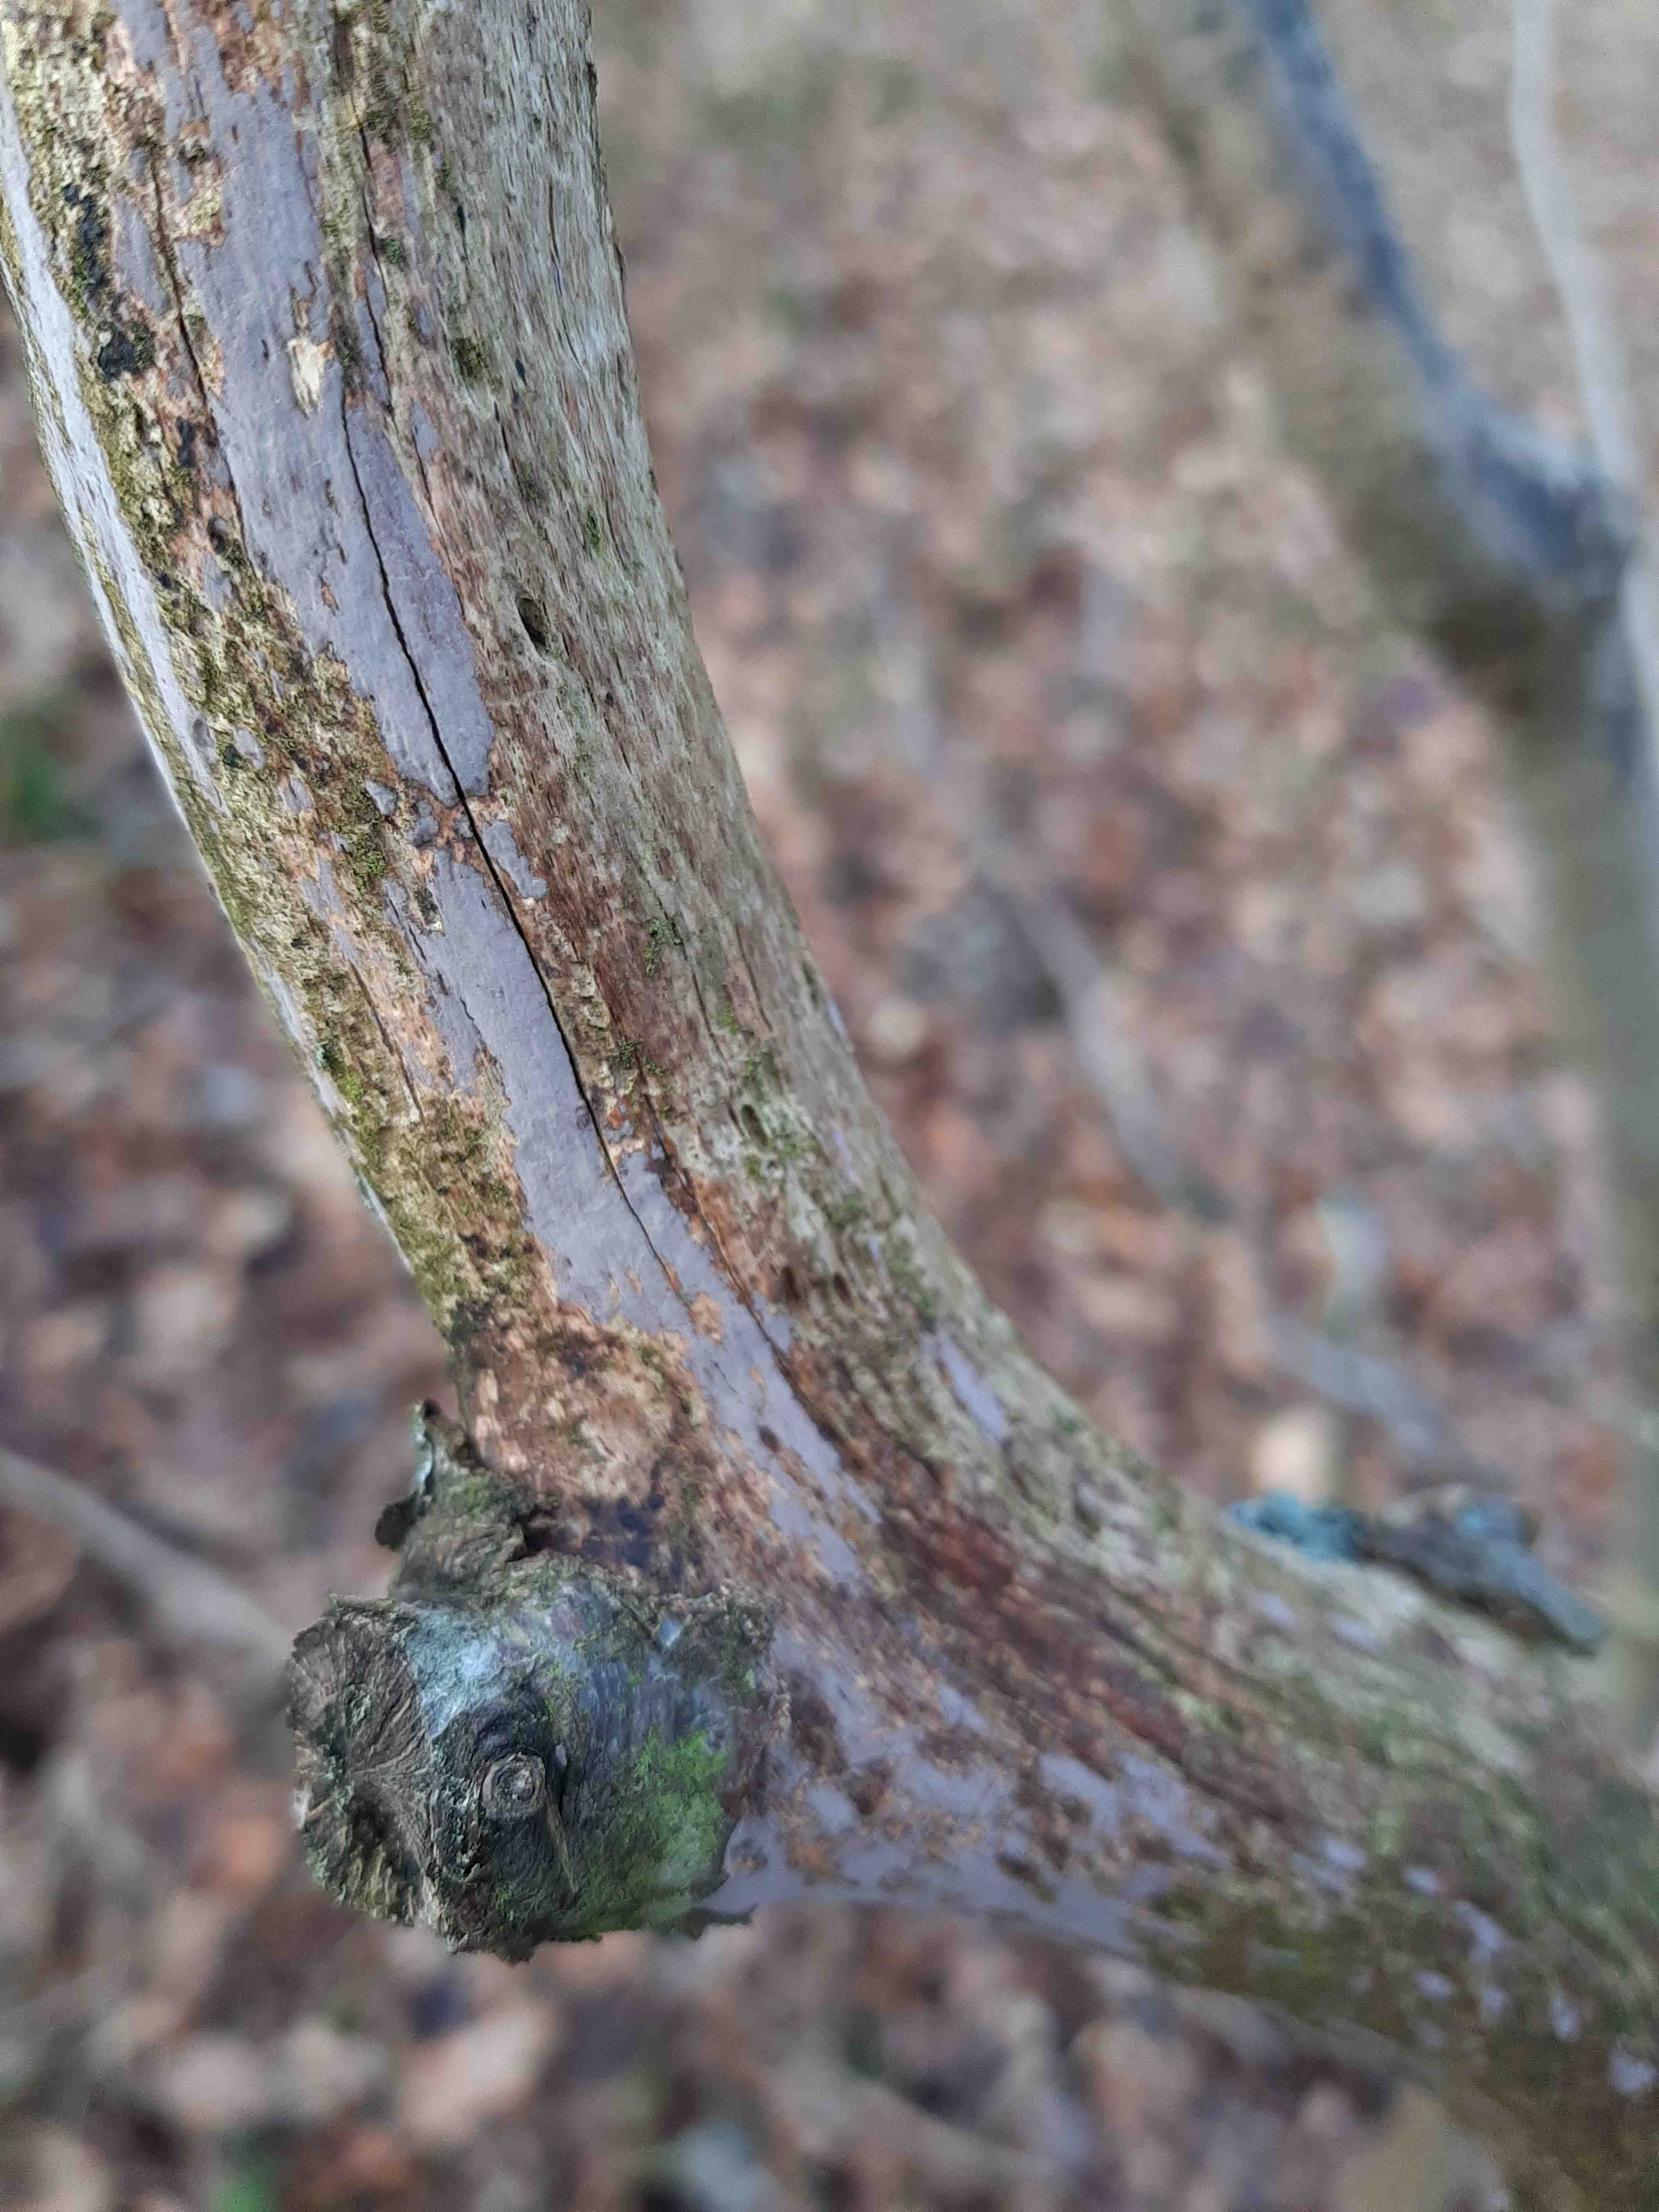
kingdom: Fungi
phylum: Basidiomycota
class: Agaricomycetes
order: Russulales
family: Peniophoraceae
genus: Peniophora
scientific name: Peniophora
